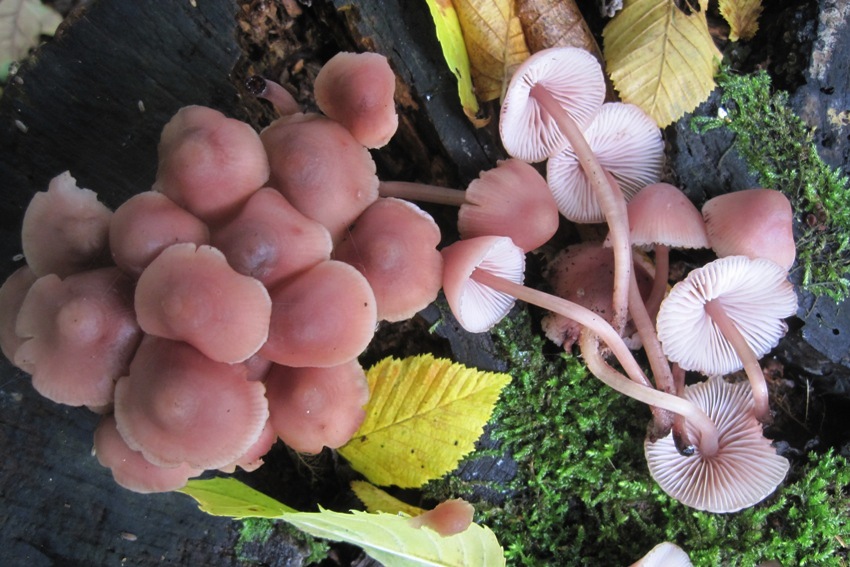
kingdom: Fungi
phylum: Basidiomycota
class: Agaricomycetes
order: Agaricales
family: Mycenaceae
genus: Mycena
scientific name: Mycena haematopus
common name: blødende huesvamp
